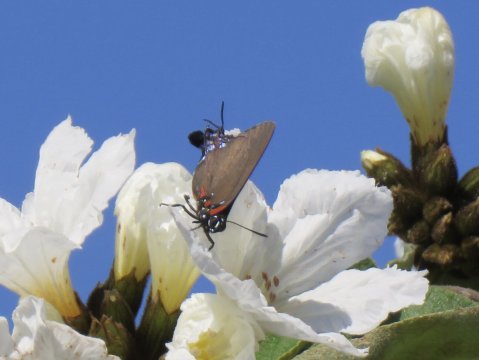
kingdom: Animalia
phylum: Arthropoda
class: Insecta
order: Lepidoptera
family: Lycaenidae
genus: Atlides
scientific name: Atlides halesus
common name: Great Purple Hairstreak
